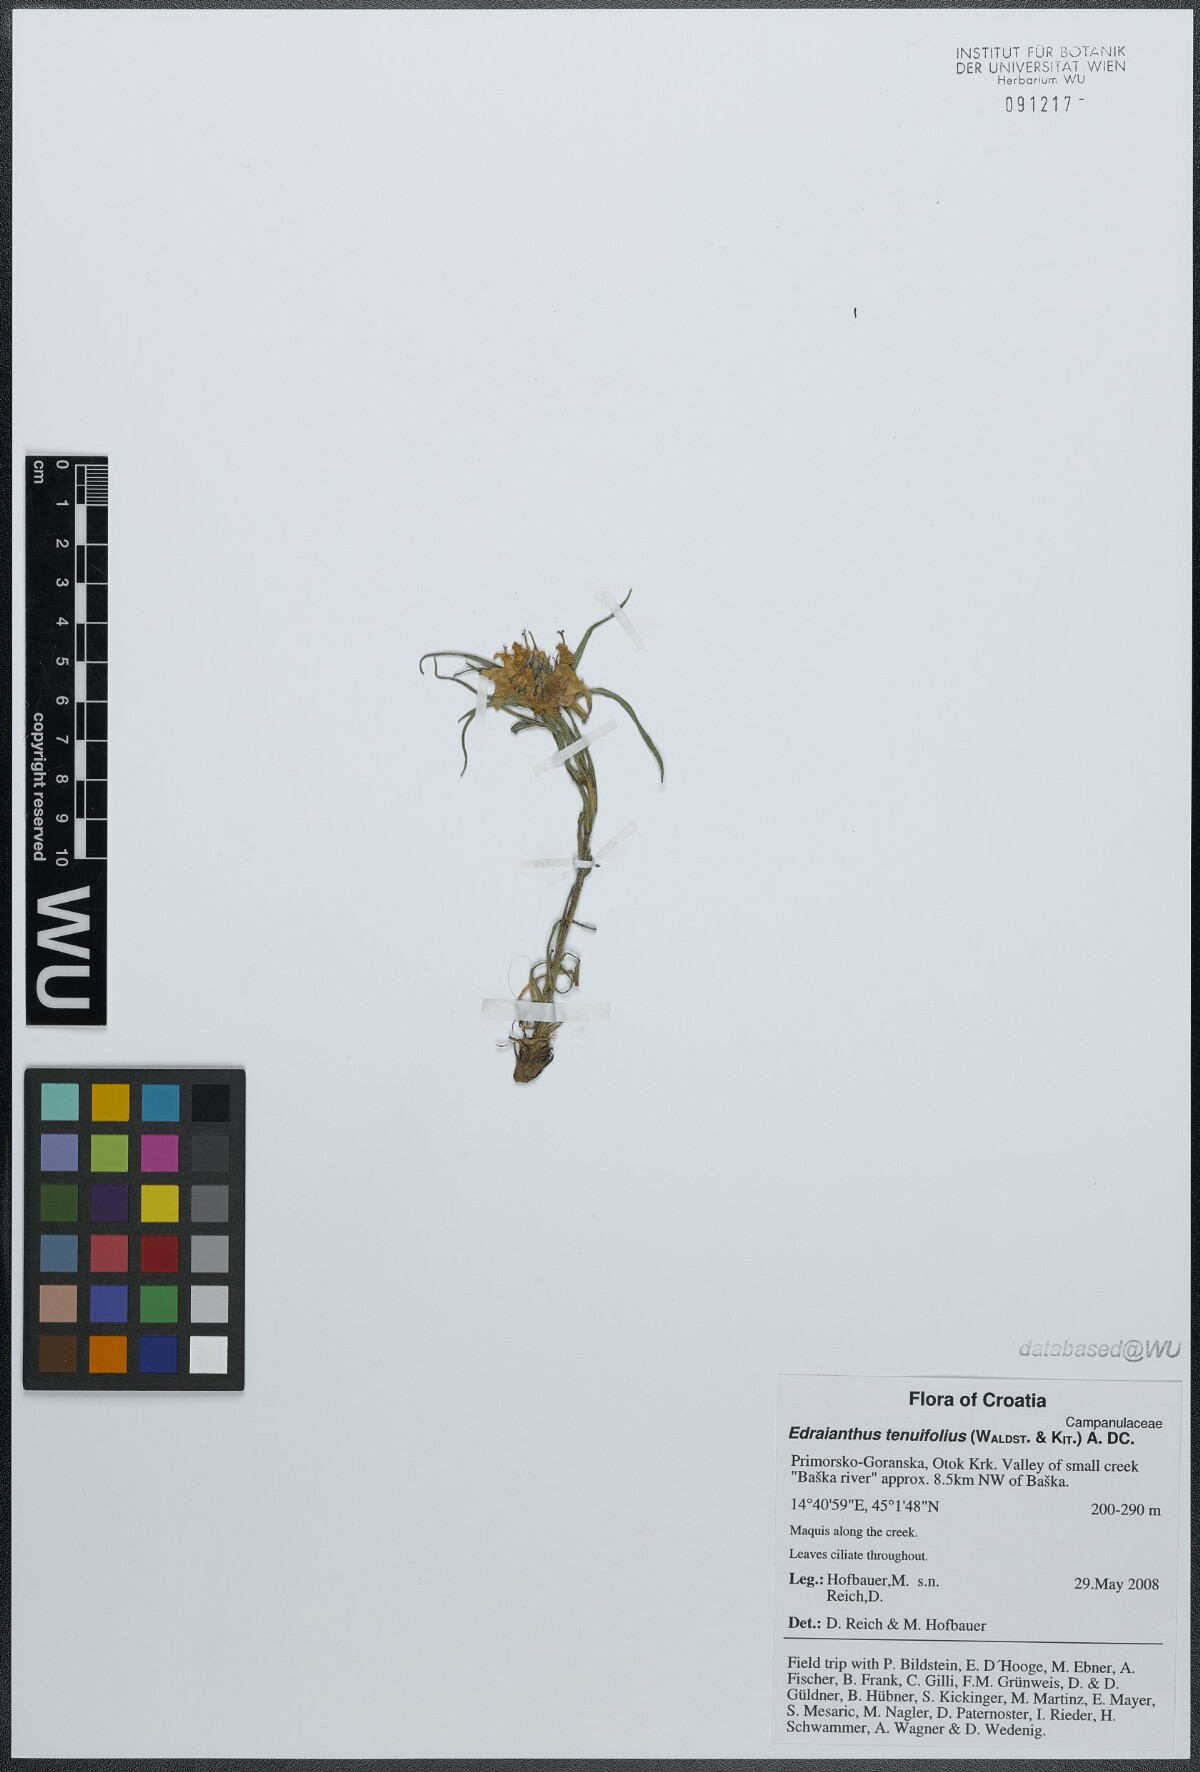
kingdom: Plantae
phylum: Tracheophyta
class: Magnoliopsida
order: Asterales
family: Campanulaceae
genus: Edraianthus
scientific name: Edraianthus tenuifolius
